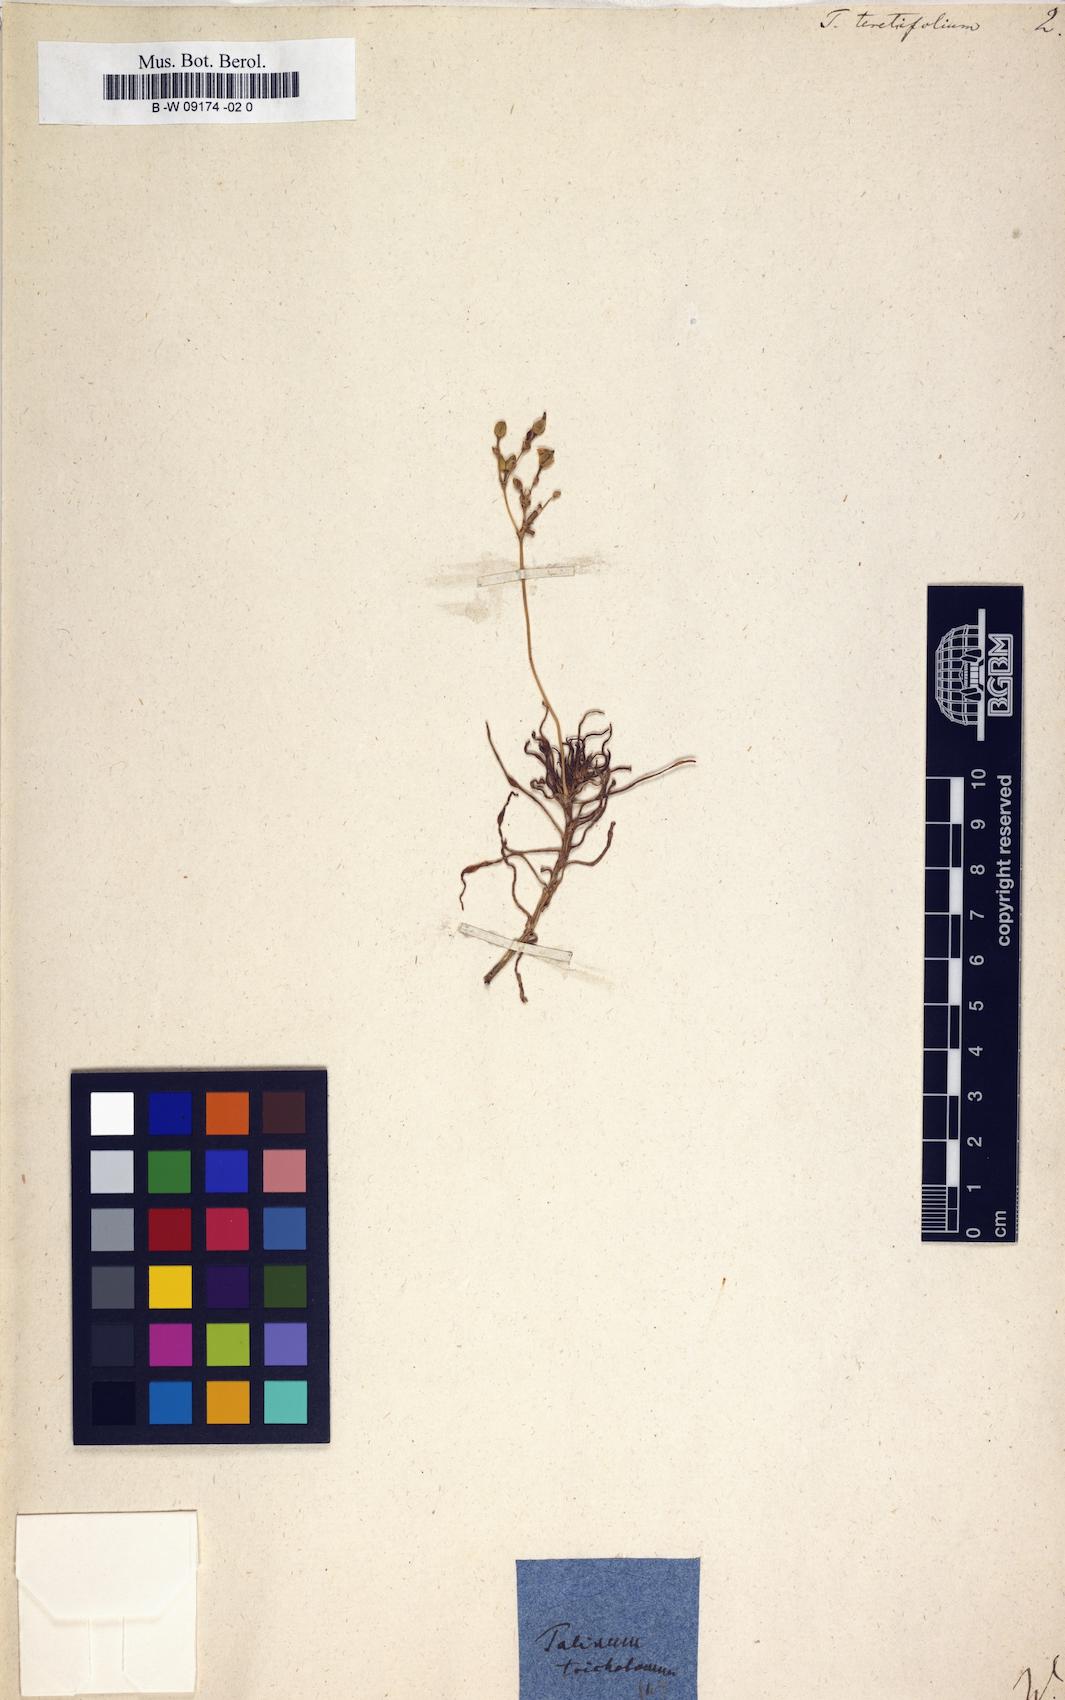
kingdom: Plantae
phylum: Tracheophyta
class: Magnoliopsida
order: Caryophyllales
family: Montiaceae
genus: Phemeranthus
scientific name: Phemeranthus teretifolius
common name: Quill fameflower
